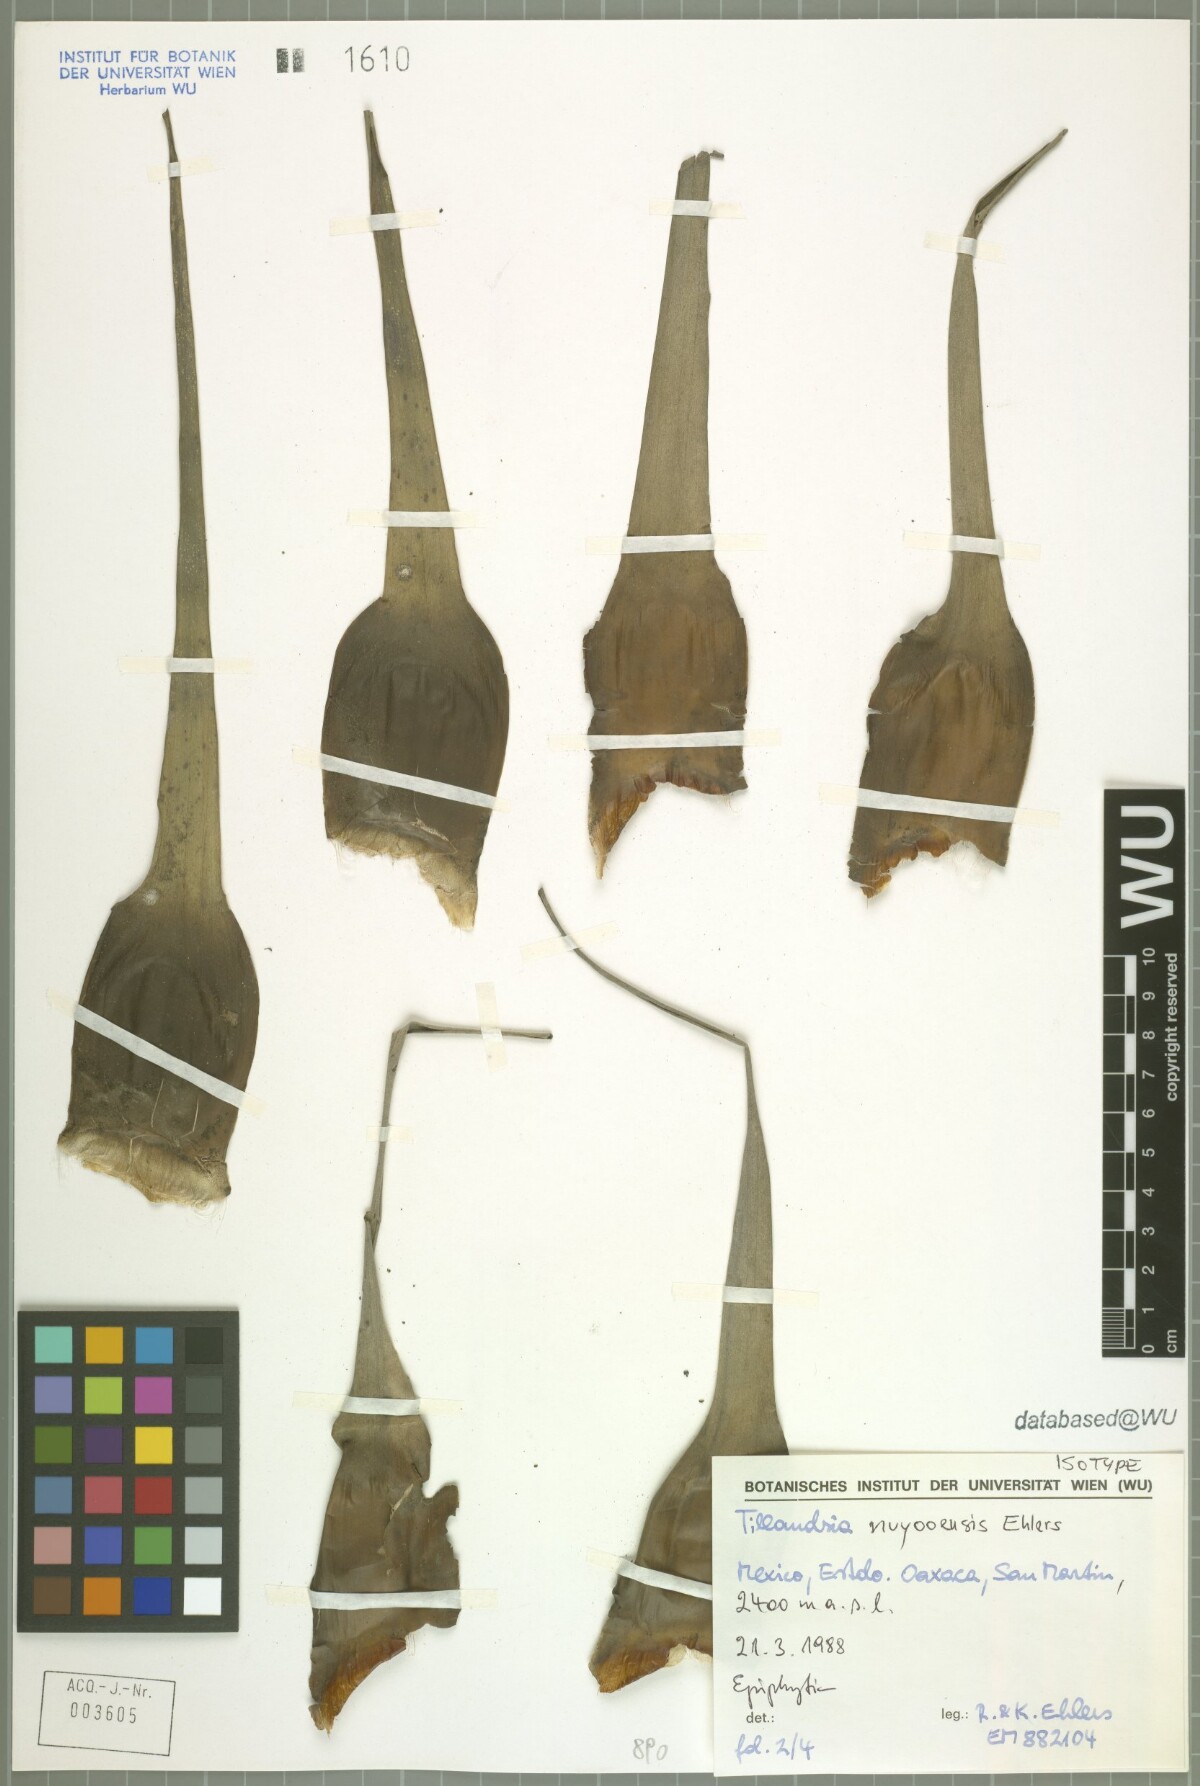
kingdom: Plantae
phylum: Tracheophyta
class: Liliopsida
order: Poales
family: Bromeliaceae
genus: Tillandsia
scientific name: Tillandsia nuyooensis
